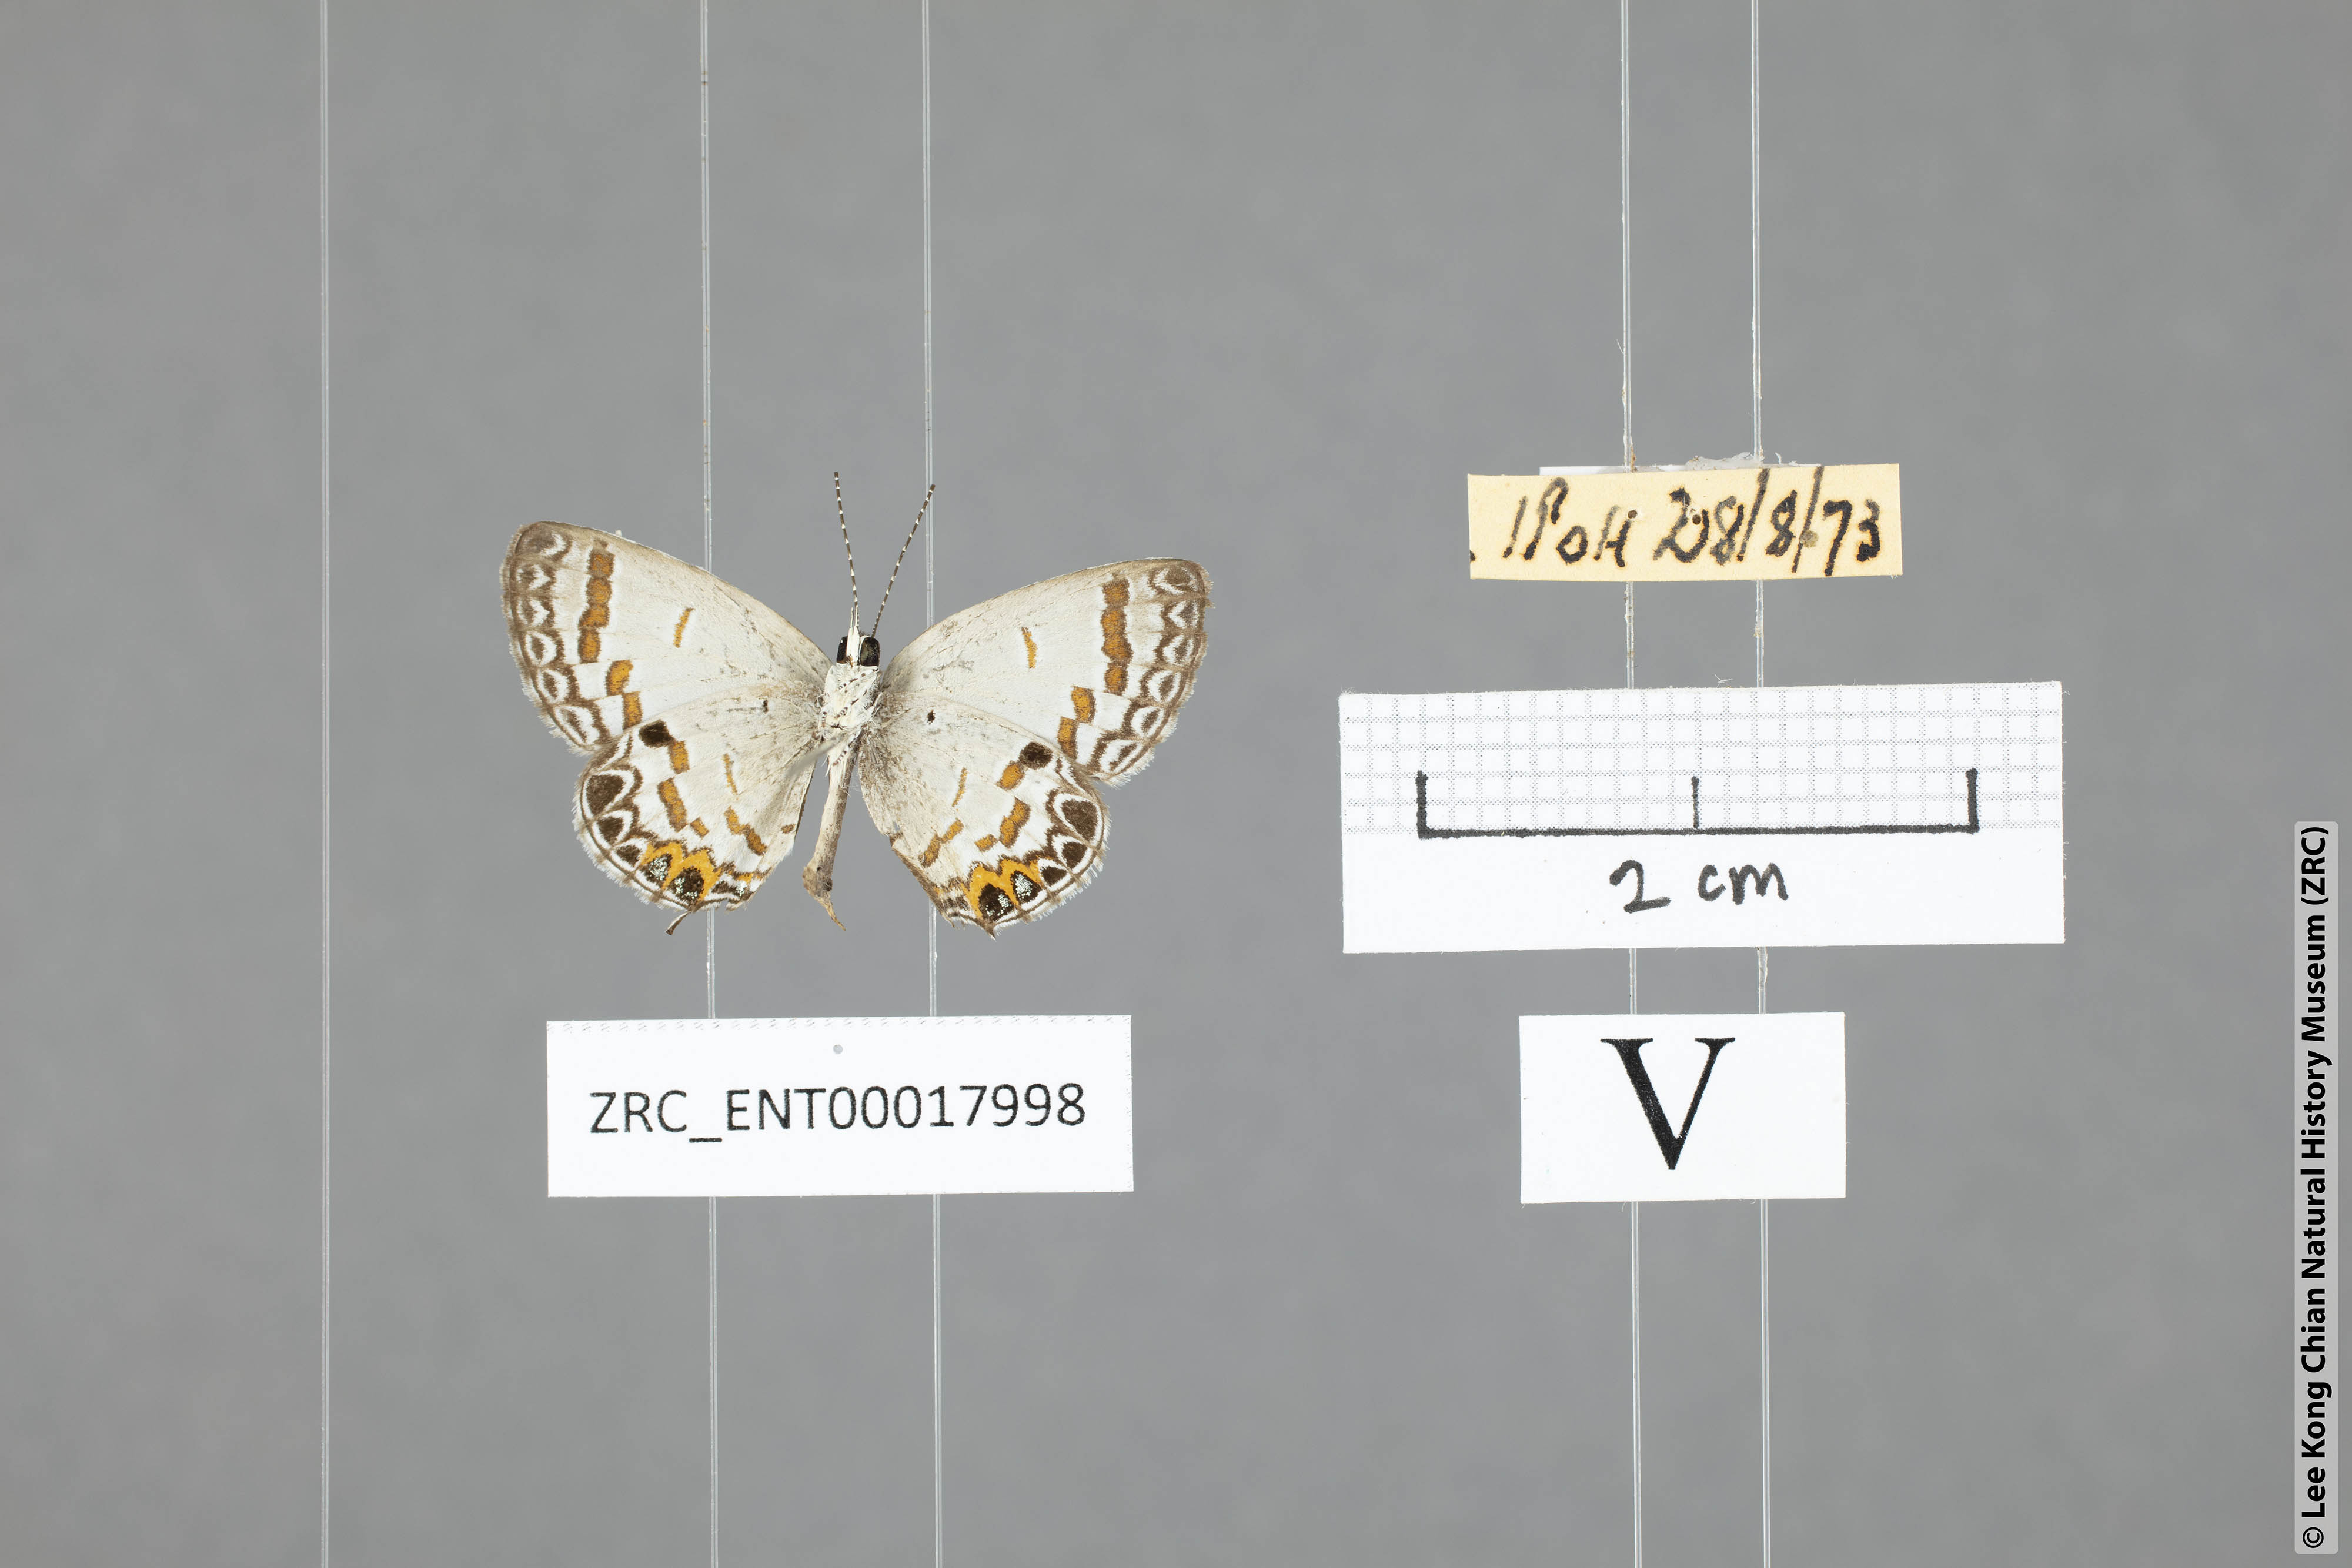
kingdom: Animalia
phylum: Arthropoda
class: Insecta
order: Lepidoptera
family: Lycaenidae
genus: Tongeia
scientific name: Tongeia
